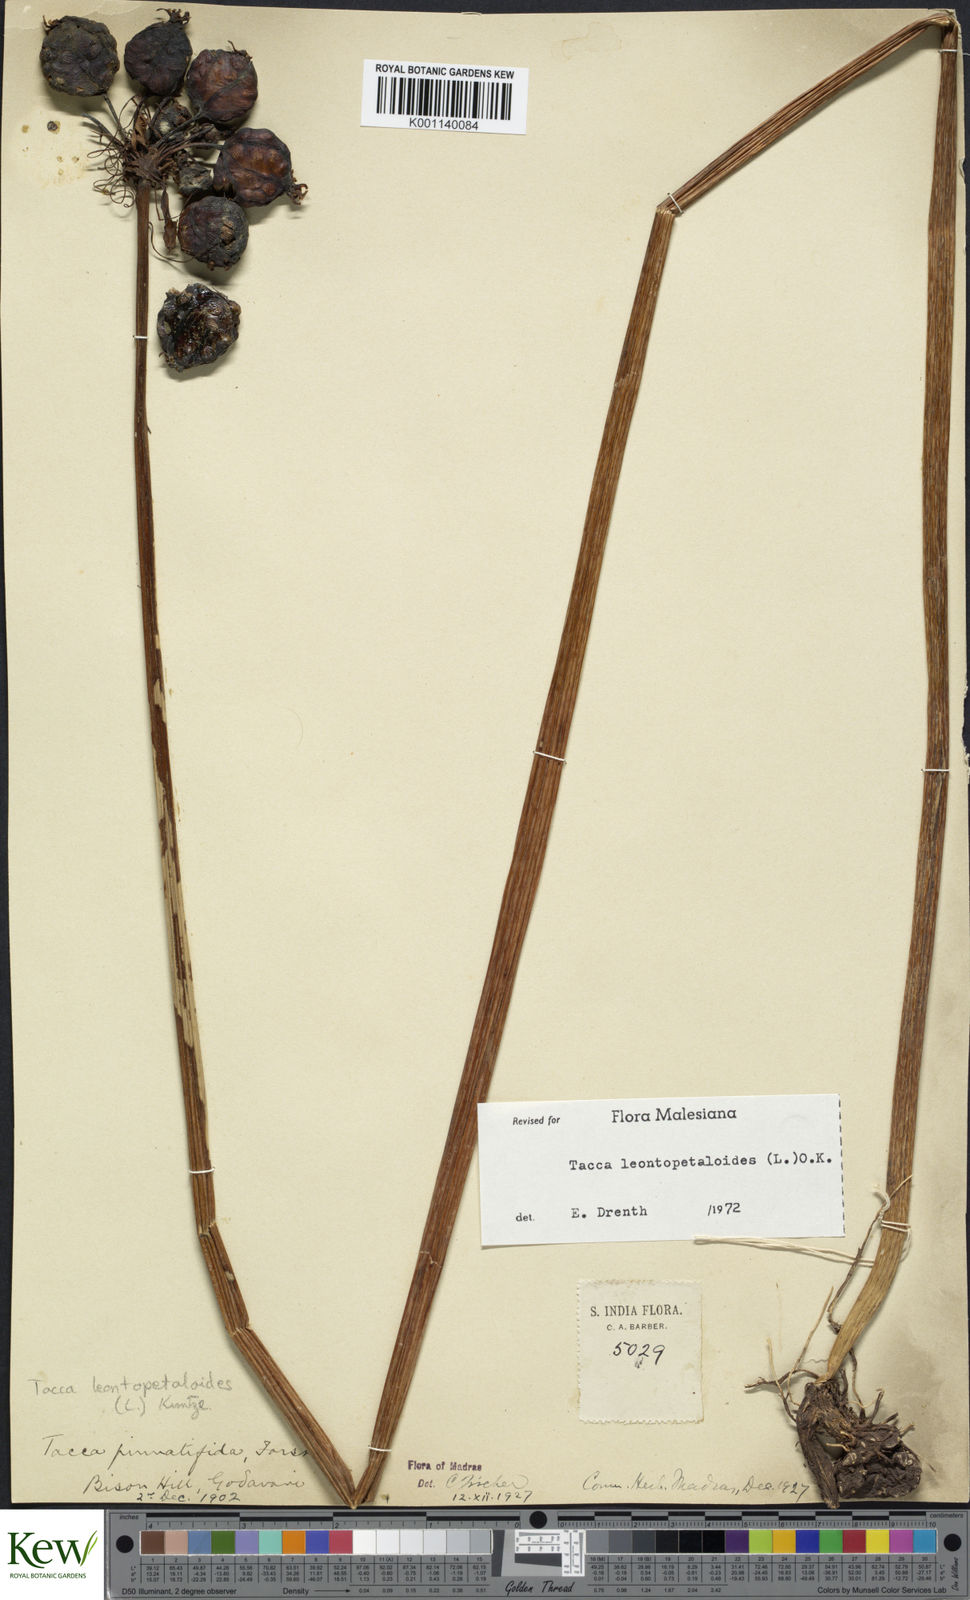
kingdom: Plantae
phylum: Tracheophyta
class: Liliopsida
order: Dioscoreales
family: Dioscoreaceae
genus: Tacca
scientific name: Tacca leontopetaloides
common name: Arrowroot
